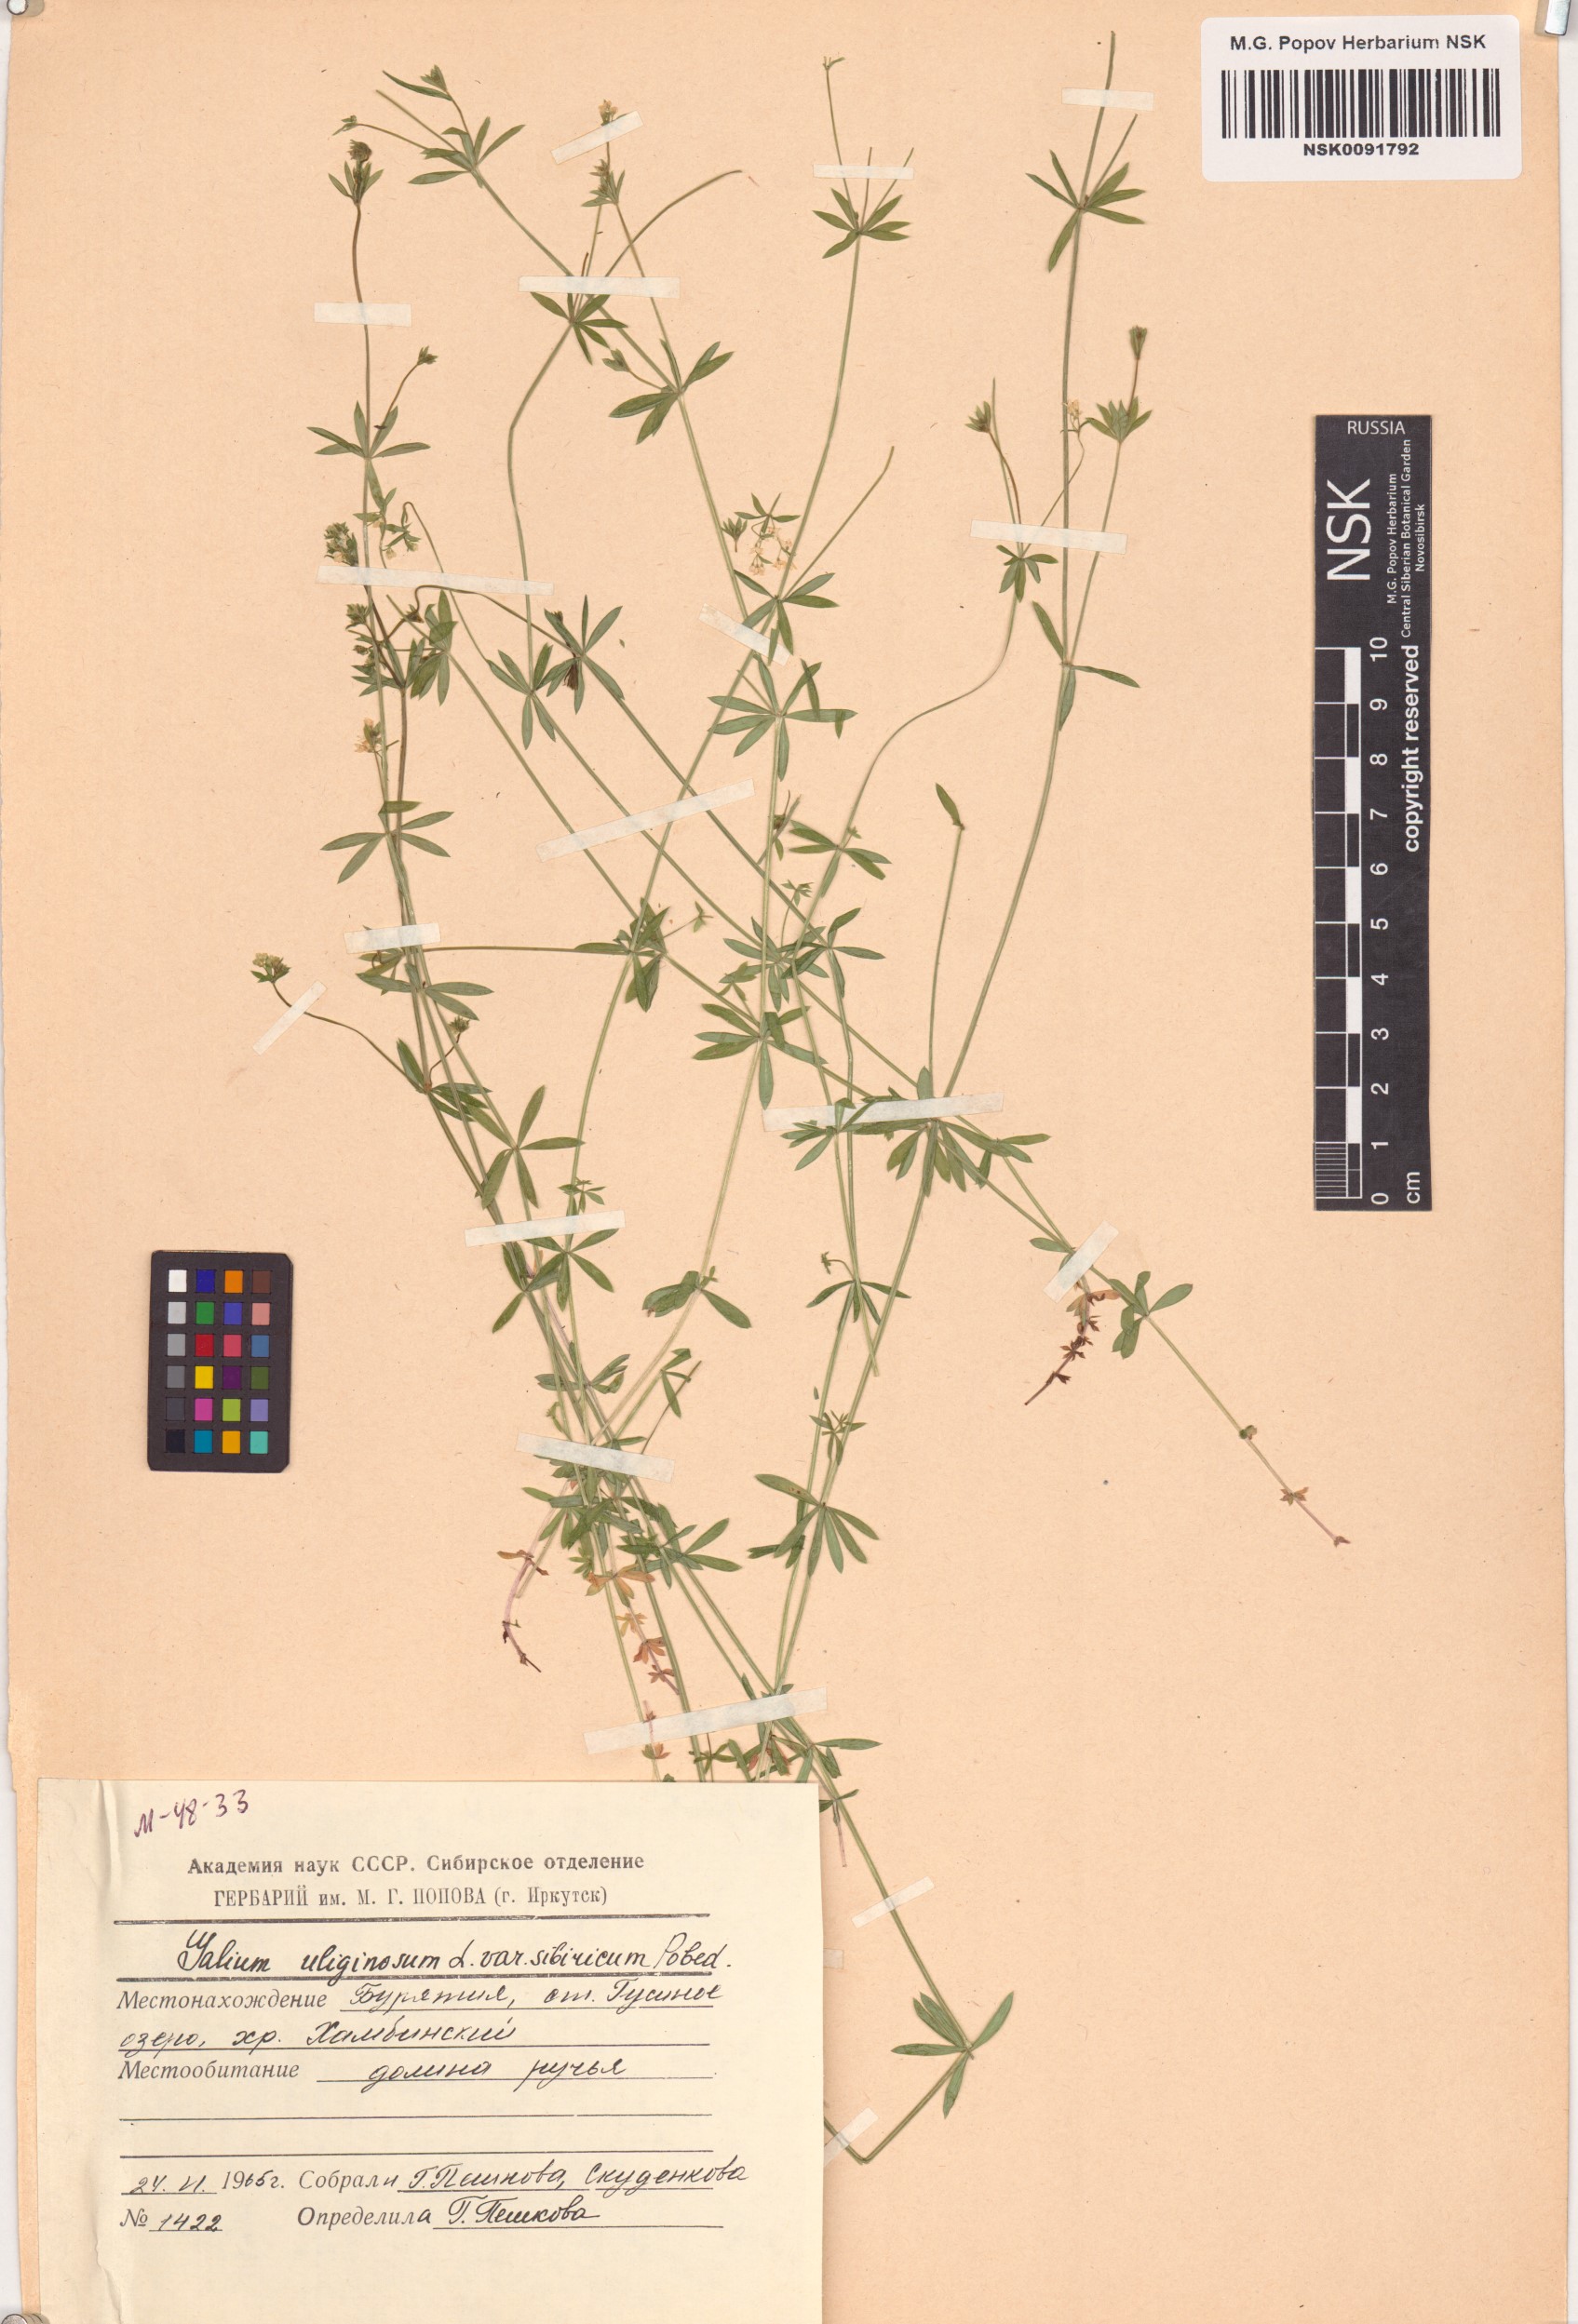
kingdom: Plantae
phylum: Tracheophyta
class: Magnoliopsida
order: Gentianales
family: Rubiaceae
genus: Galium
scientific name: Galium uliginosum
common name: Fen bedstraw
